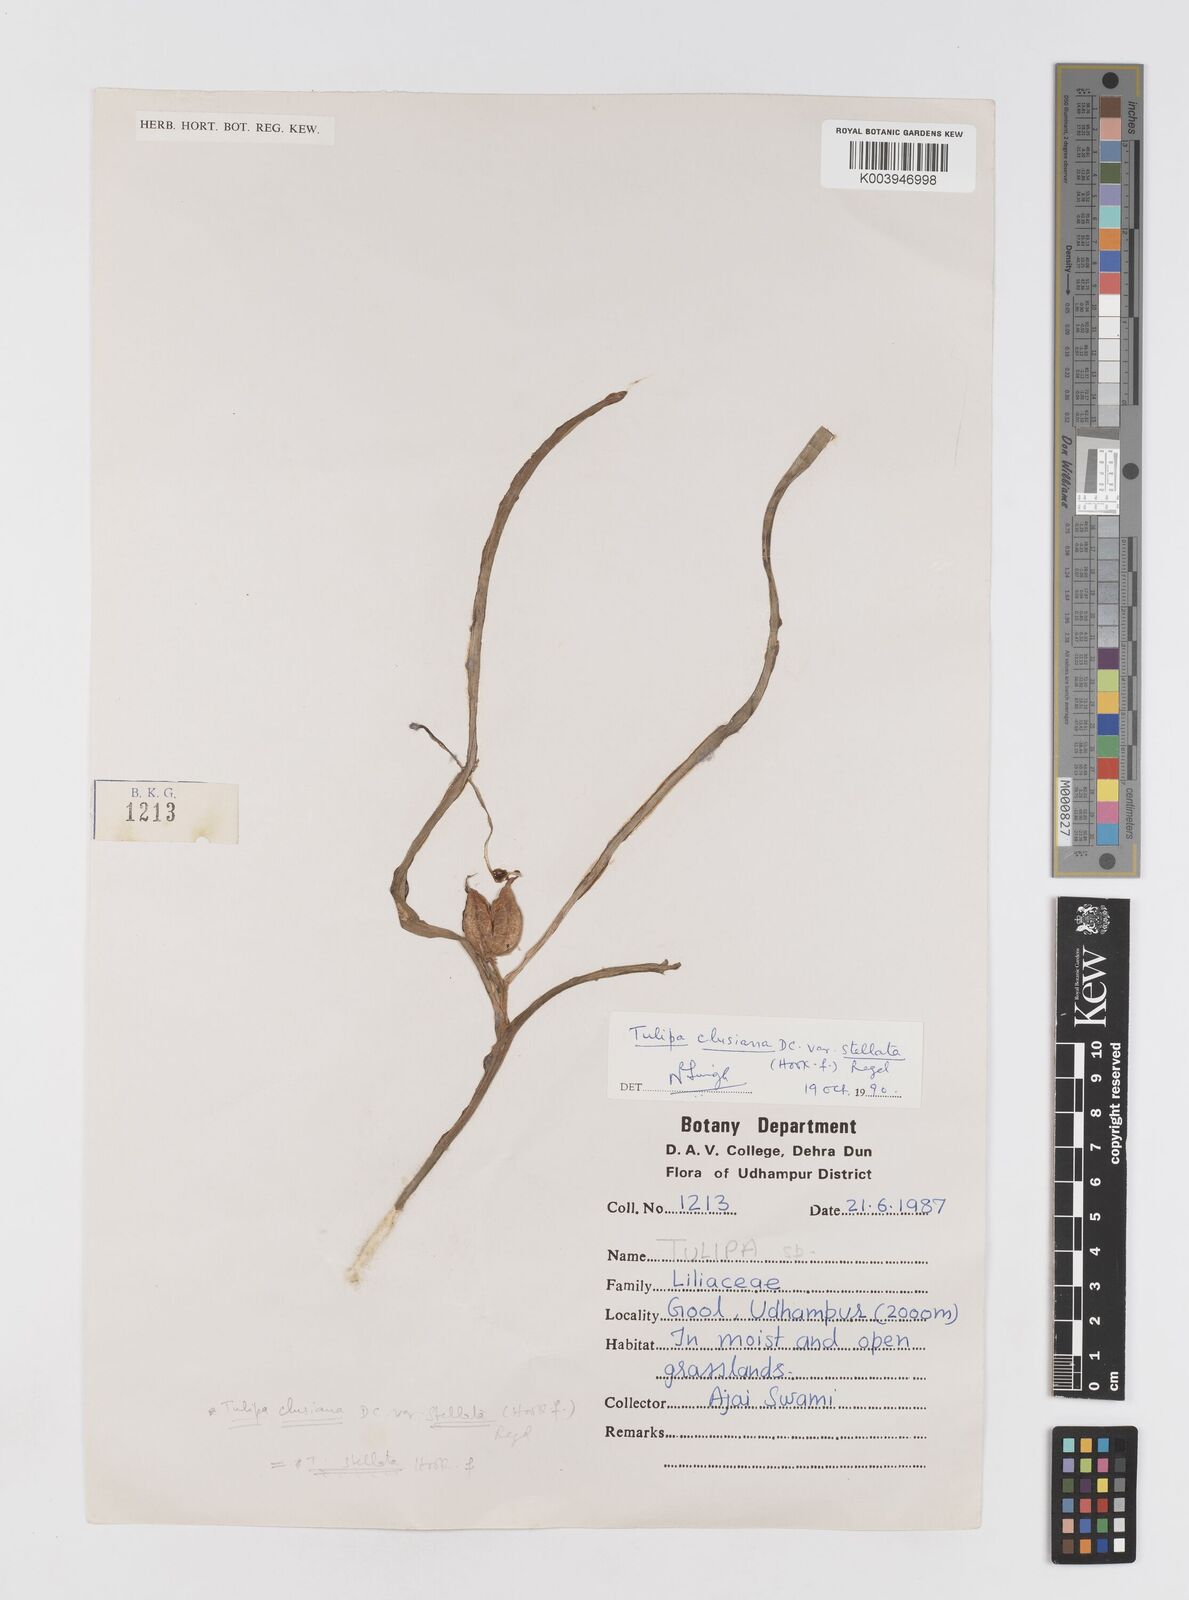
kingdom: Plantae
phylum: Tracheophyta
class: Liliopsida
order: Liliales
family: Liliaceae
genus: Tulipa
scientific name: Tulipa clusiana
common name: Lady tulip
